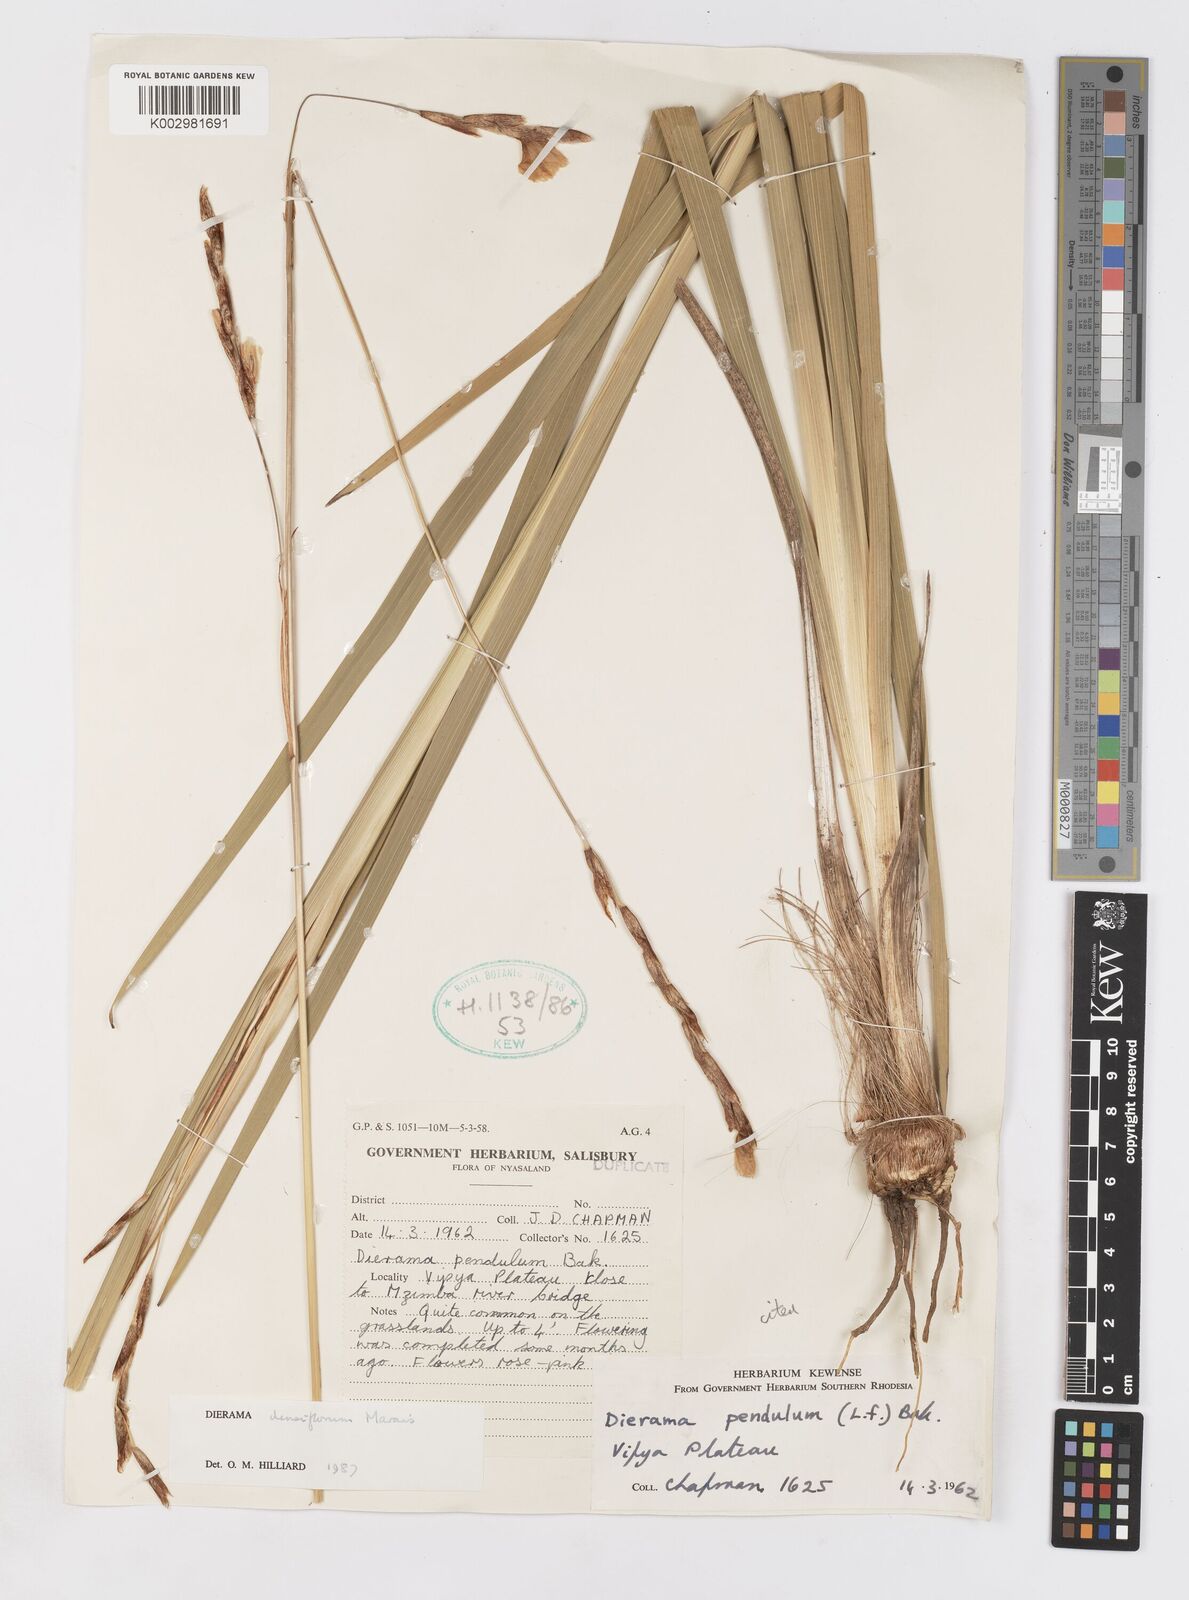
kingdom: Plantae
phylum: Tracheophyta
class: Liliopsida
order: Asparagales
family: Iridaceae
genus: Dierama
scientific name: Dierama densiflorum
